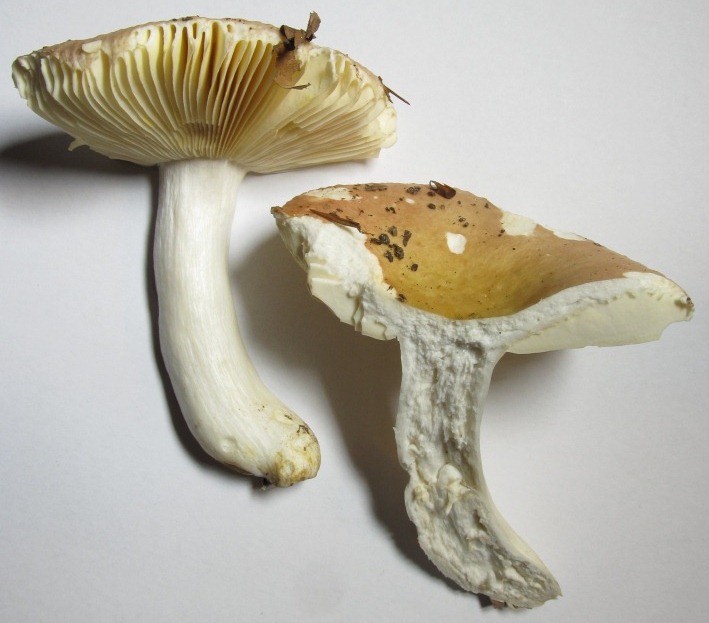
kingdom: Fungi
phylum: Basidiomycota
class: Agaricomycetes
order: Russulales
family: Russulaceae
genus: Russula
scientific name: Russula veternosa
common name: blødkødet skørhat
